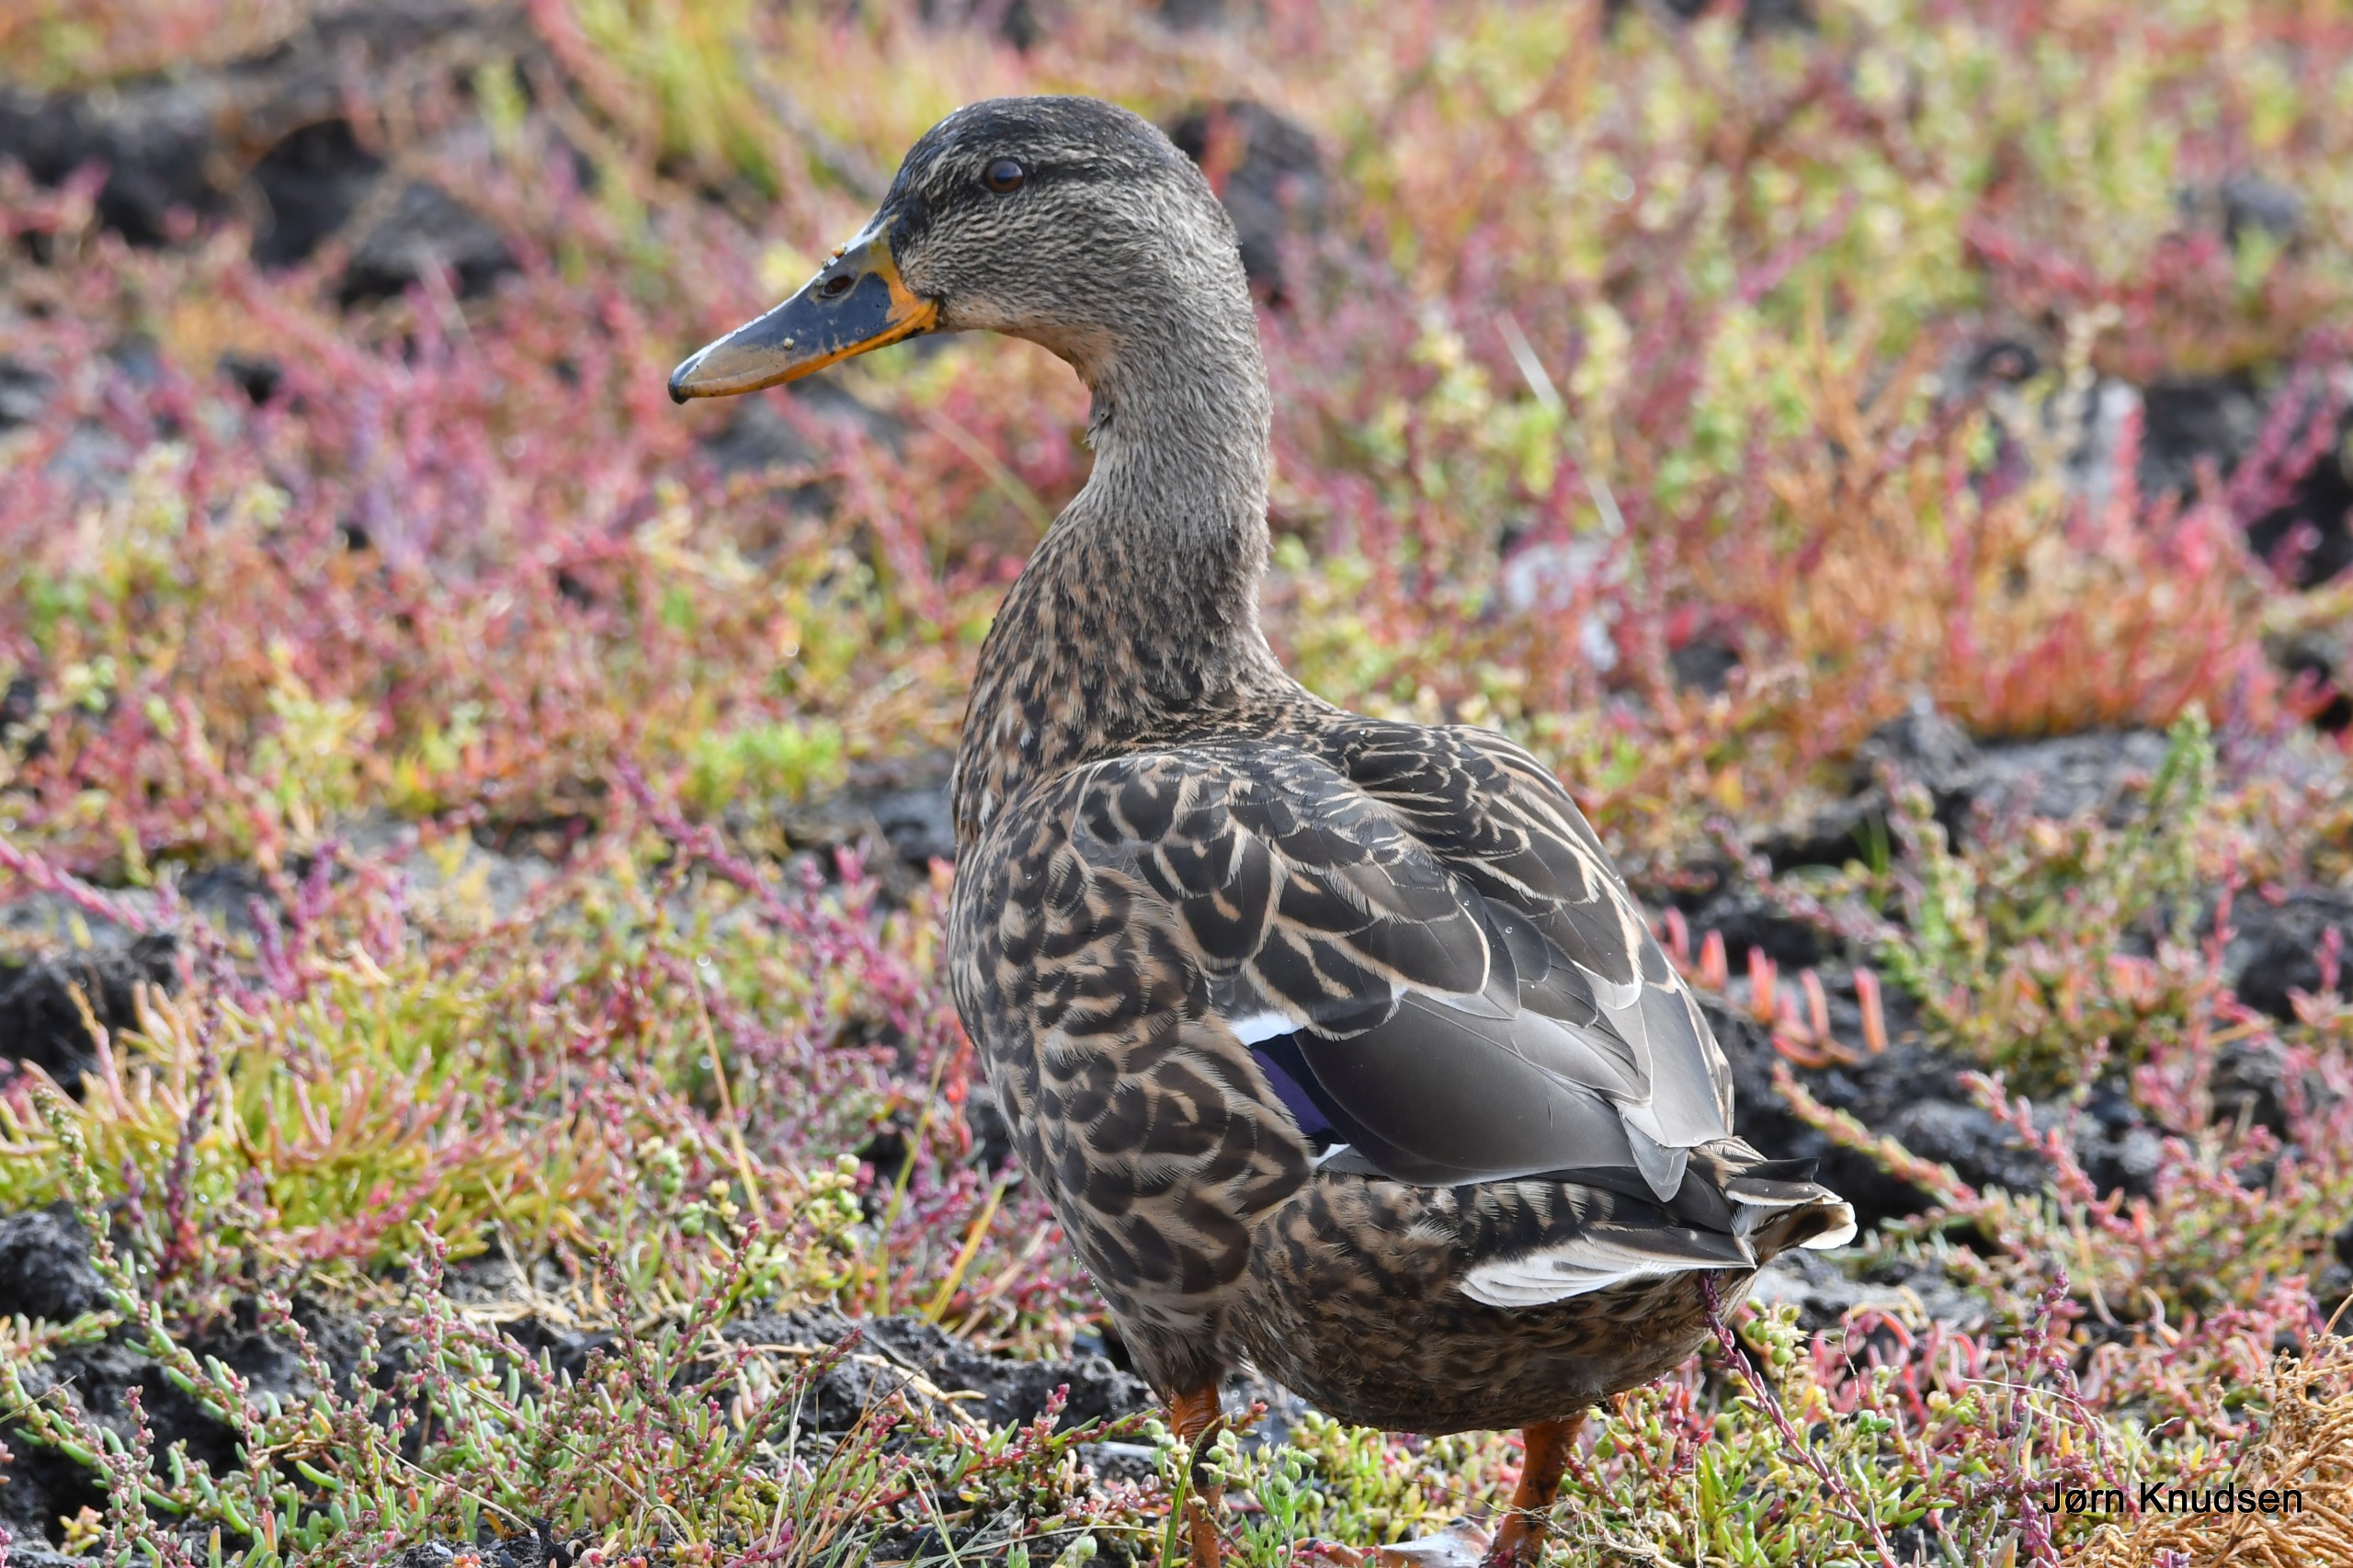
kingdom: Animalia
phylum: Chordata
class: Aves
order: Anseriformes
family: Anatidae
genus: Anas
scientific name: Anas platyrhynchos
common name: Gråand
